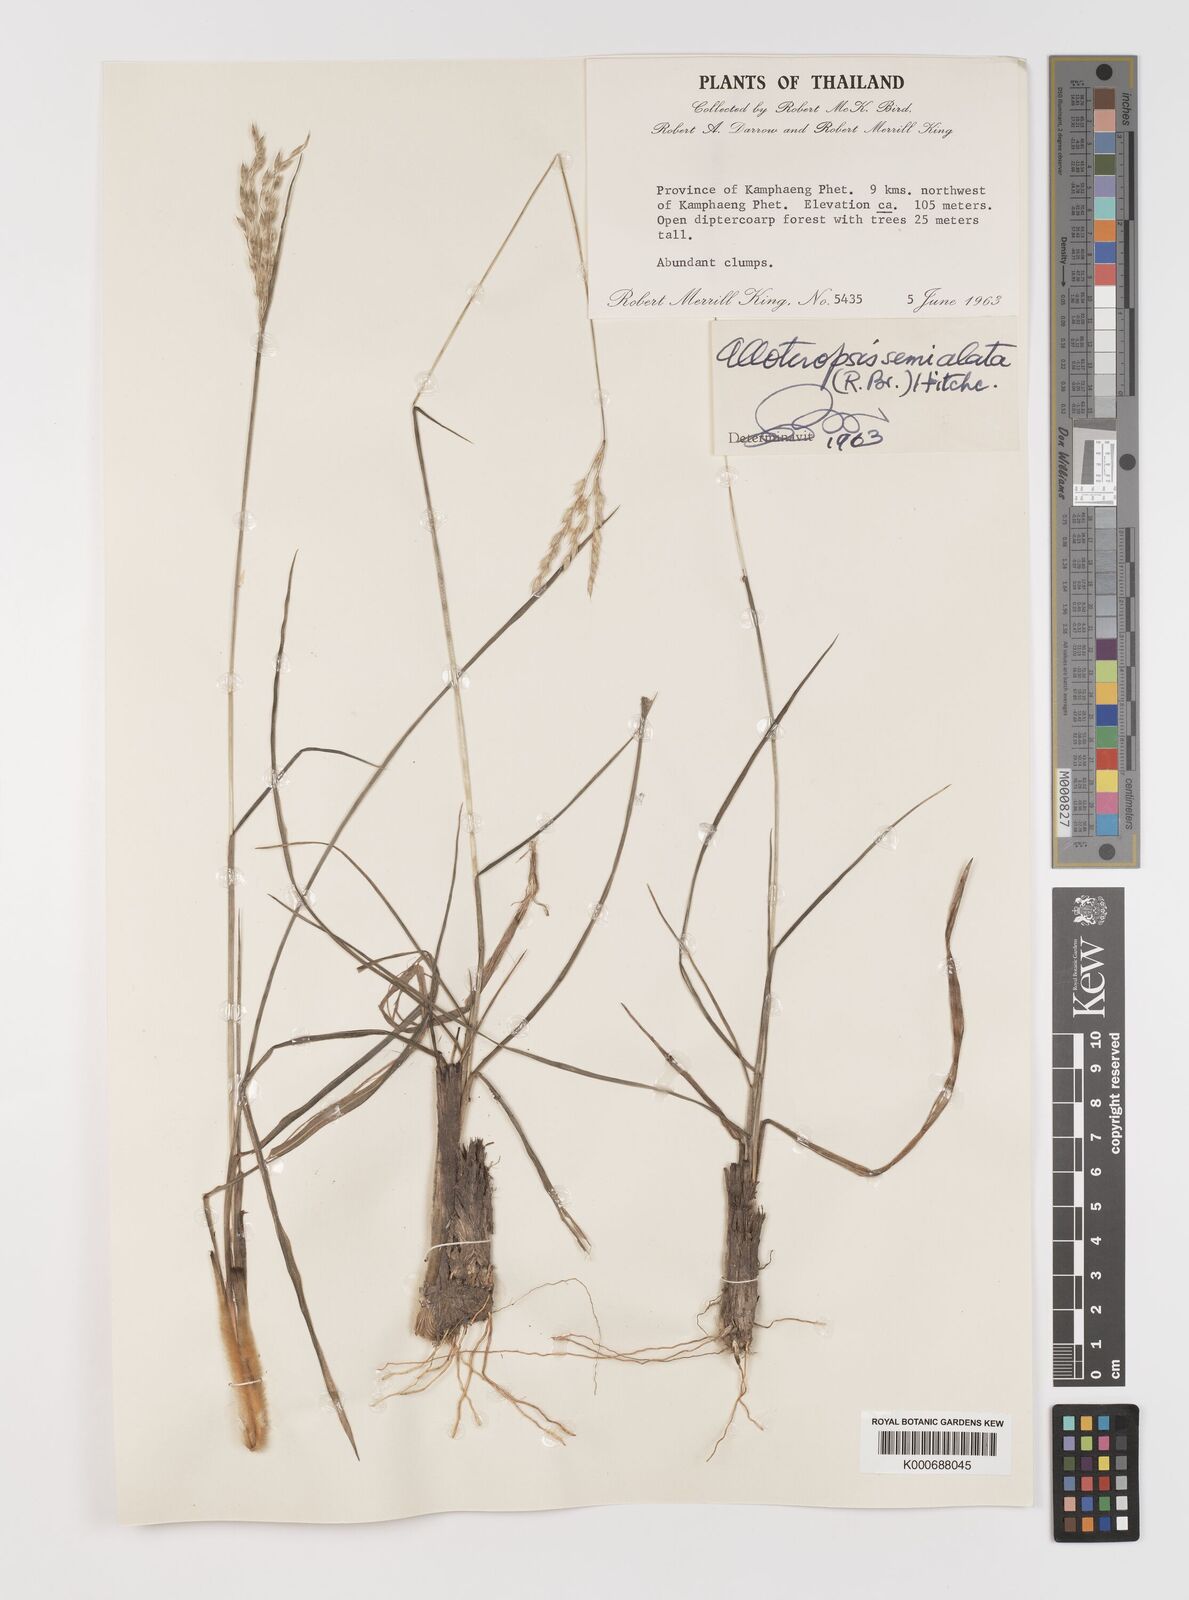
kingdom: Plantae
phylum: Tracheophyta
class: Liliopsida
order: Poales
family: Poaceae
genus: Alloteropsis
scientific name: Alloteropsis semialata
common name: Cockatoo grass
